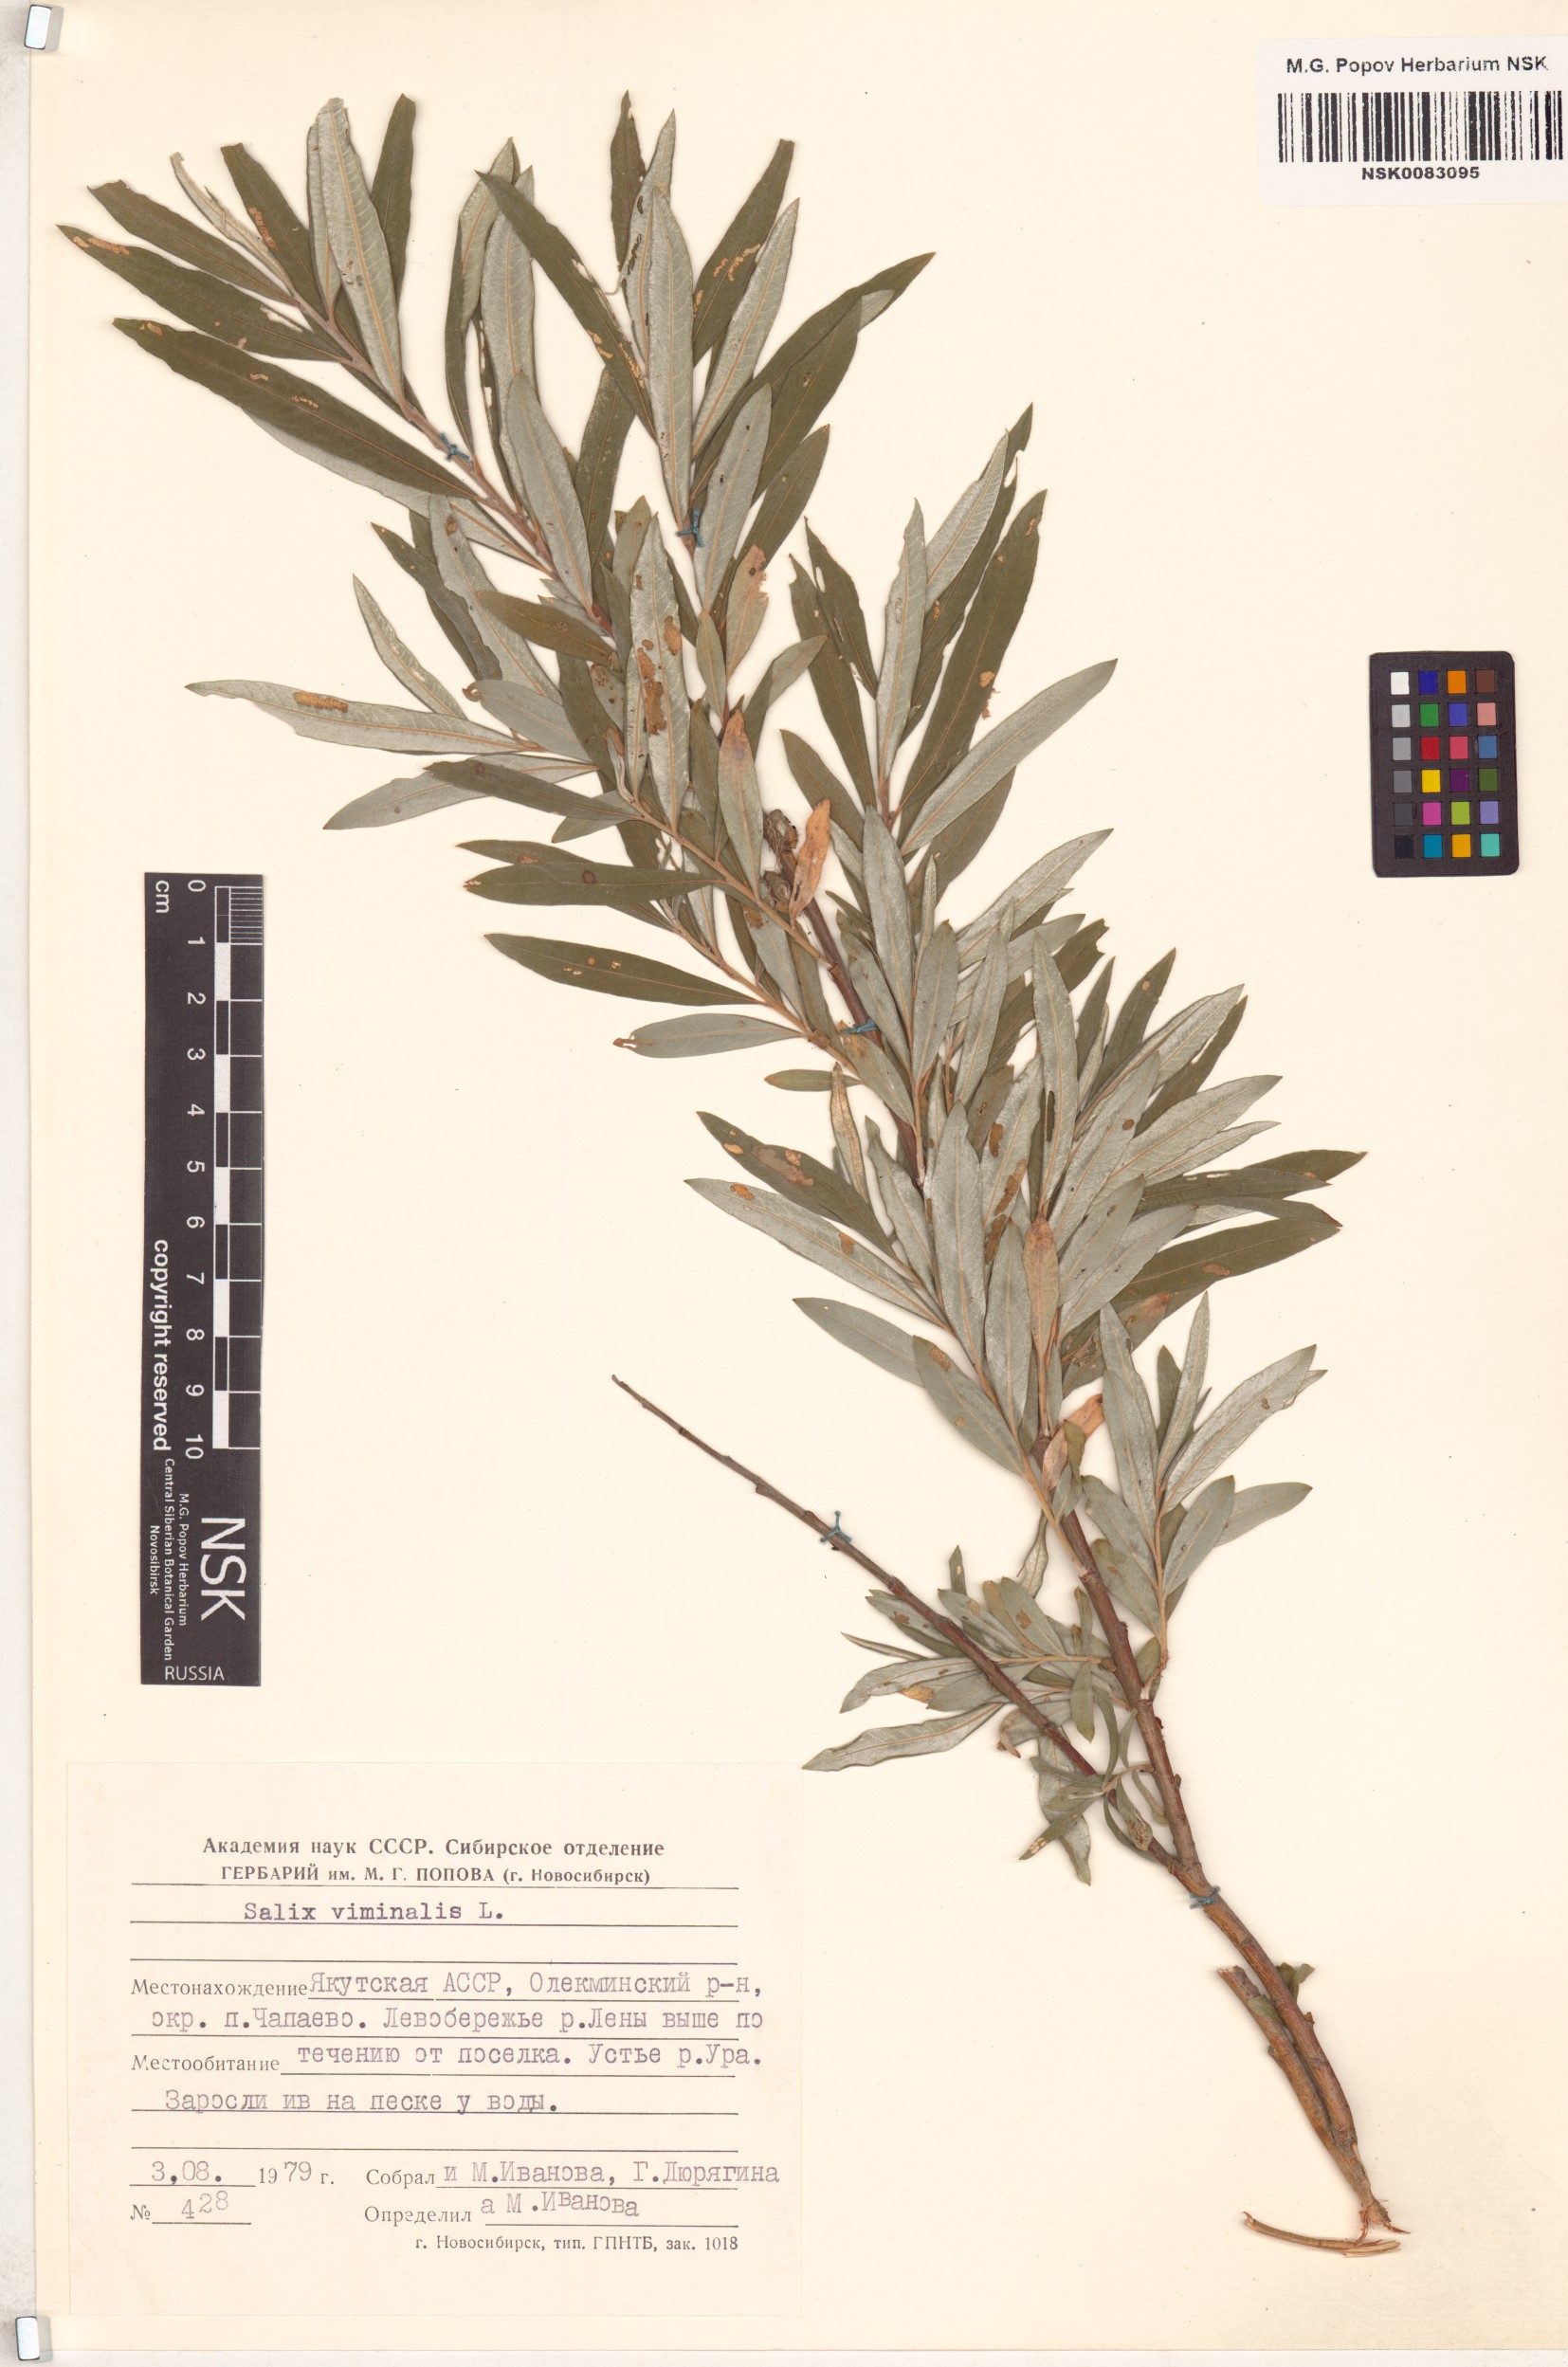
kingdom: Plantae
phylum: Tracheophyta
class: Magnoliopsida
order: Malpighiales
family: Salicaceae
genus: Salix
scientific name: Salix viminalis
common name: Osier
